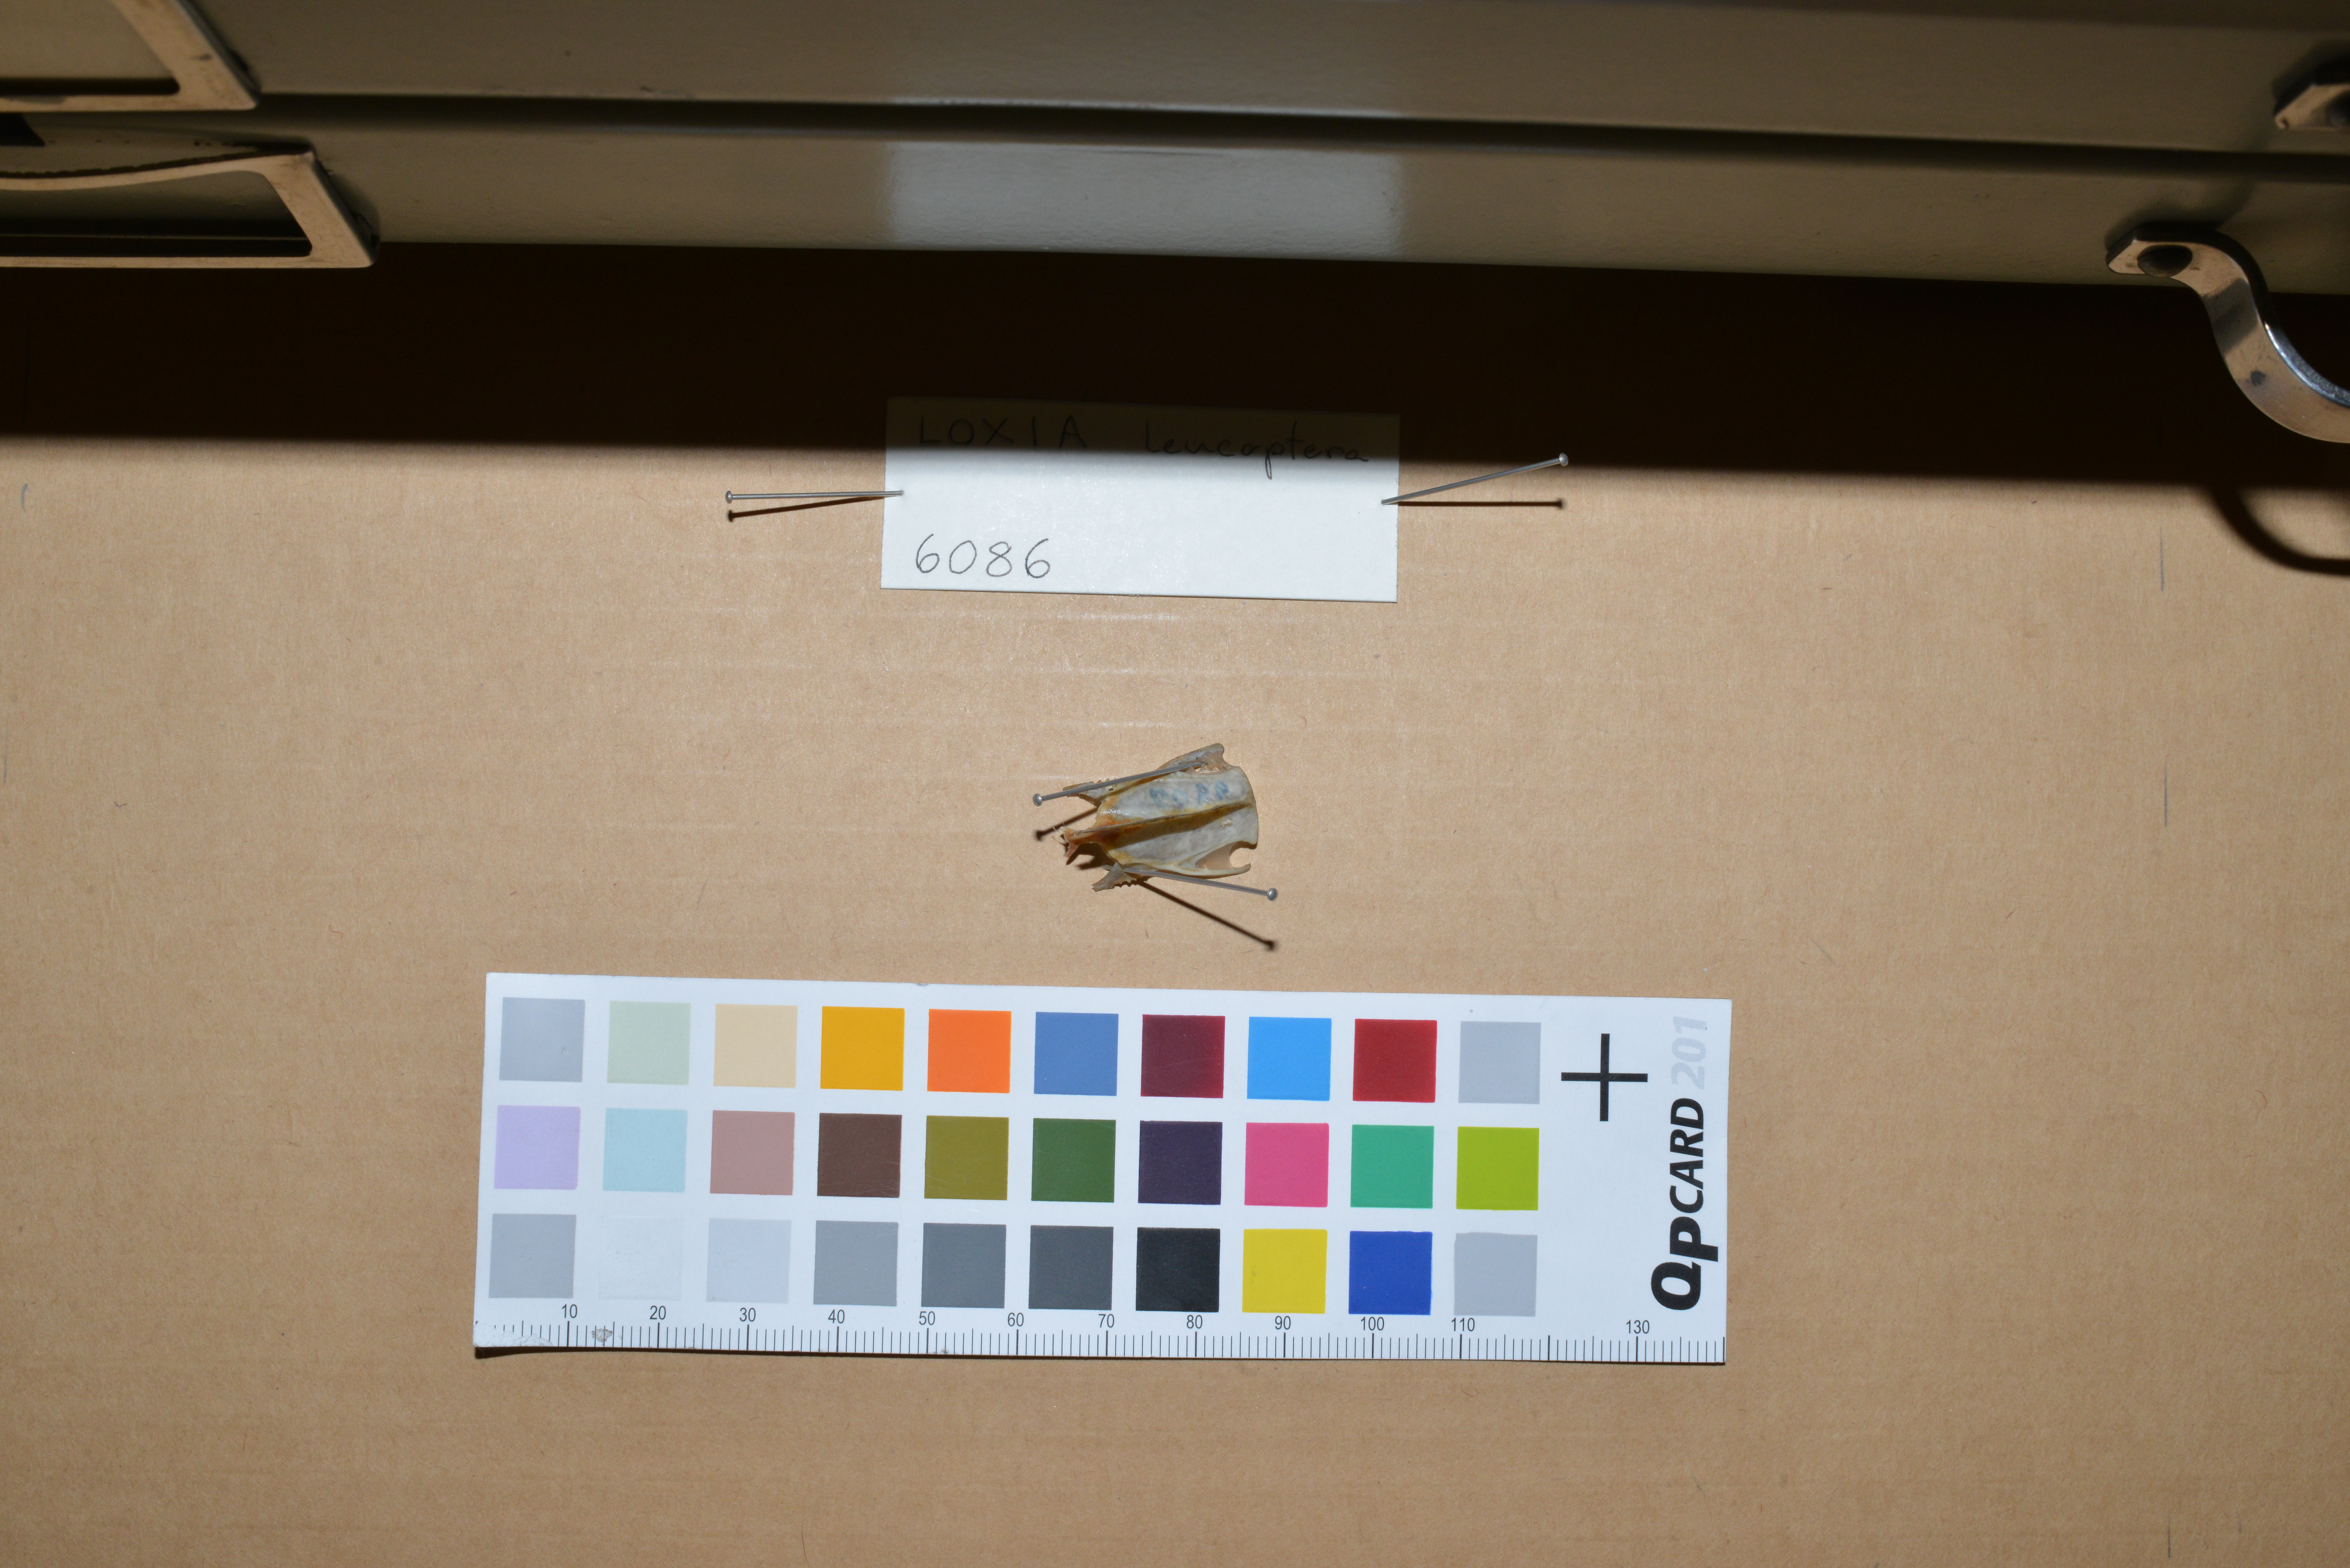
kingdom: Animalia
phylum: Chordata
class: Aves
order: Passeriformes
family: Fringillidae
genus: Loxia
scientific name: Loxia leucoptera
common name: Two-barred crossbill
